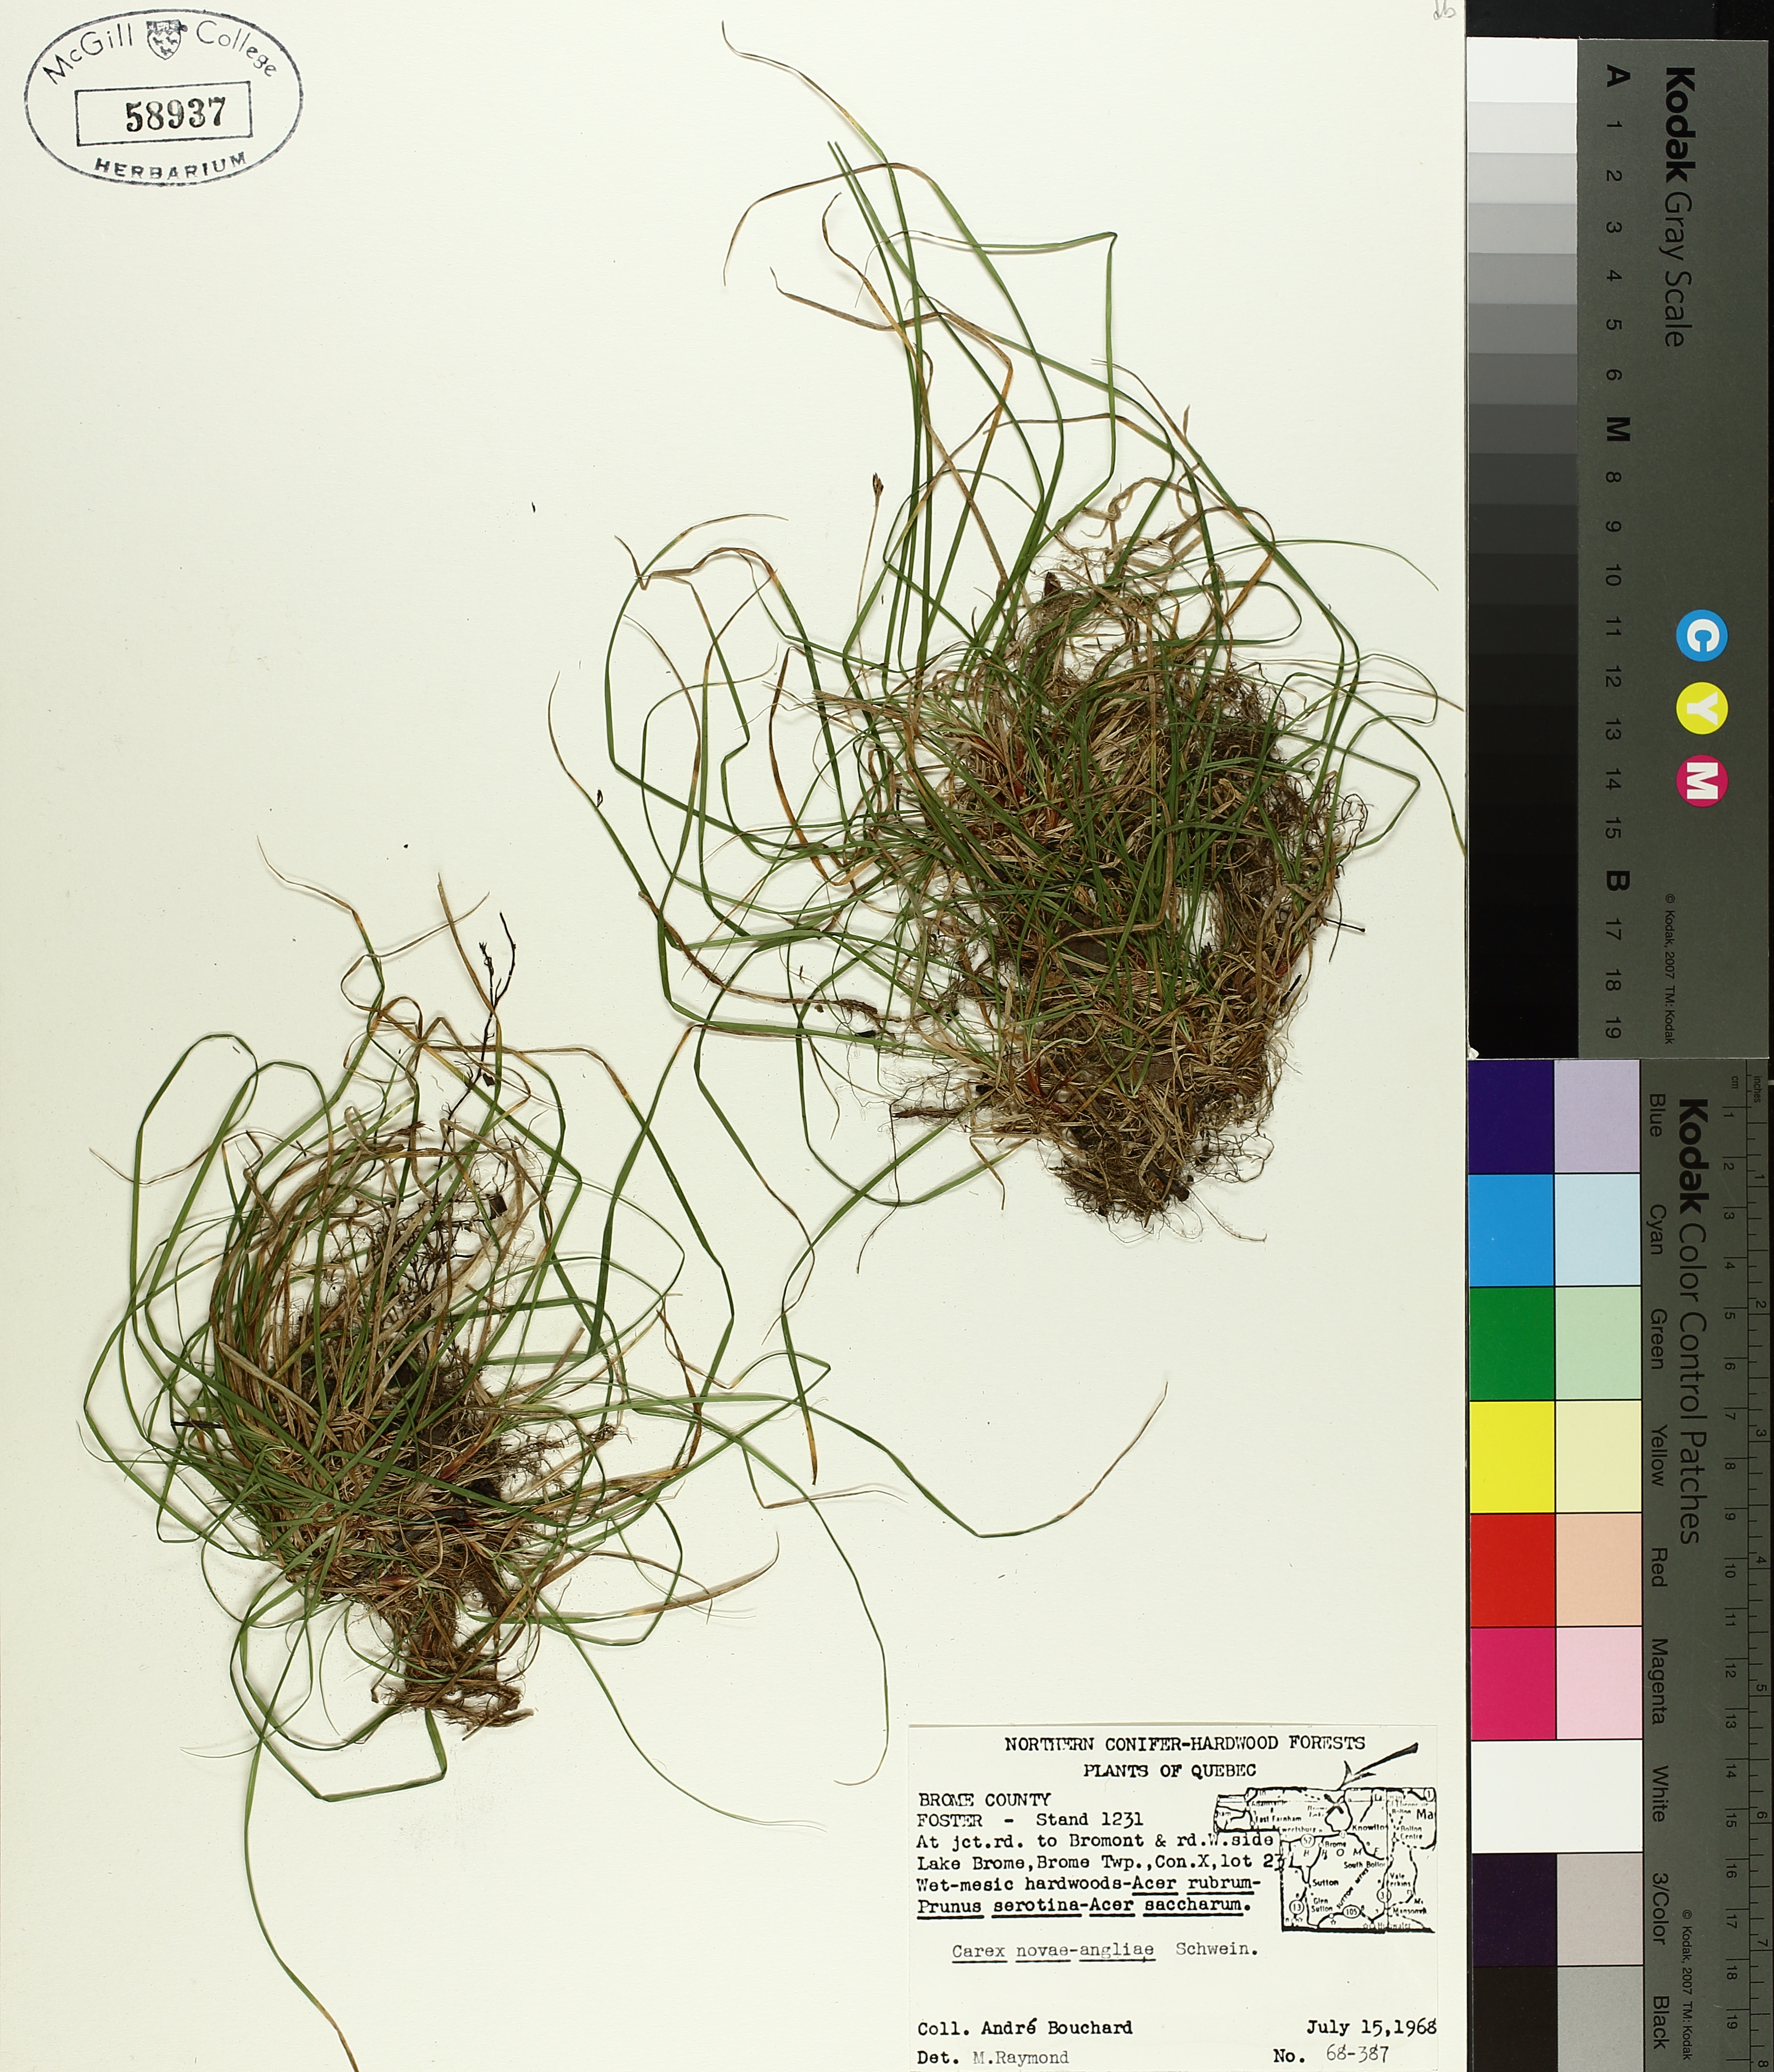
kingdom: Plantae
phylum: Tracheophyta
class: Liliopsida
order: Poales
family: Cyperaceae
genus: Carex
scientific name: Carex novae-angliae
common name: New england sedge
